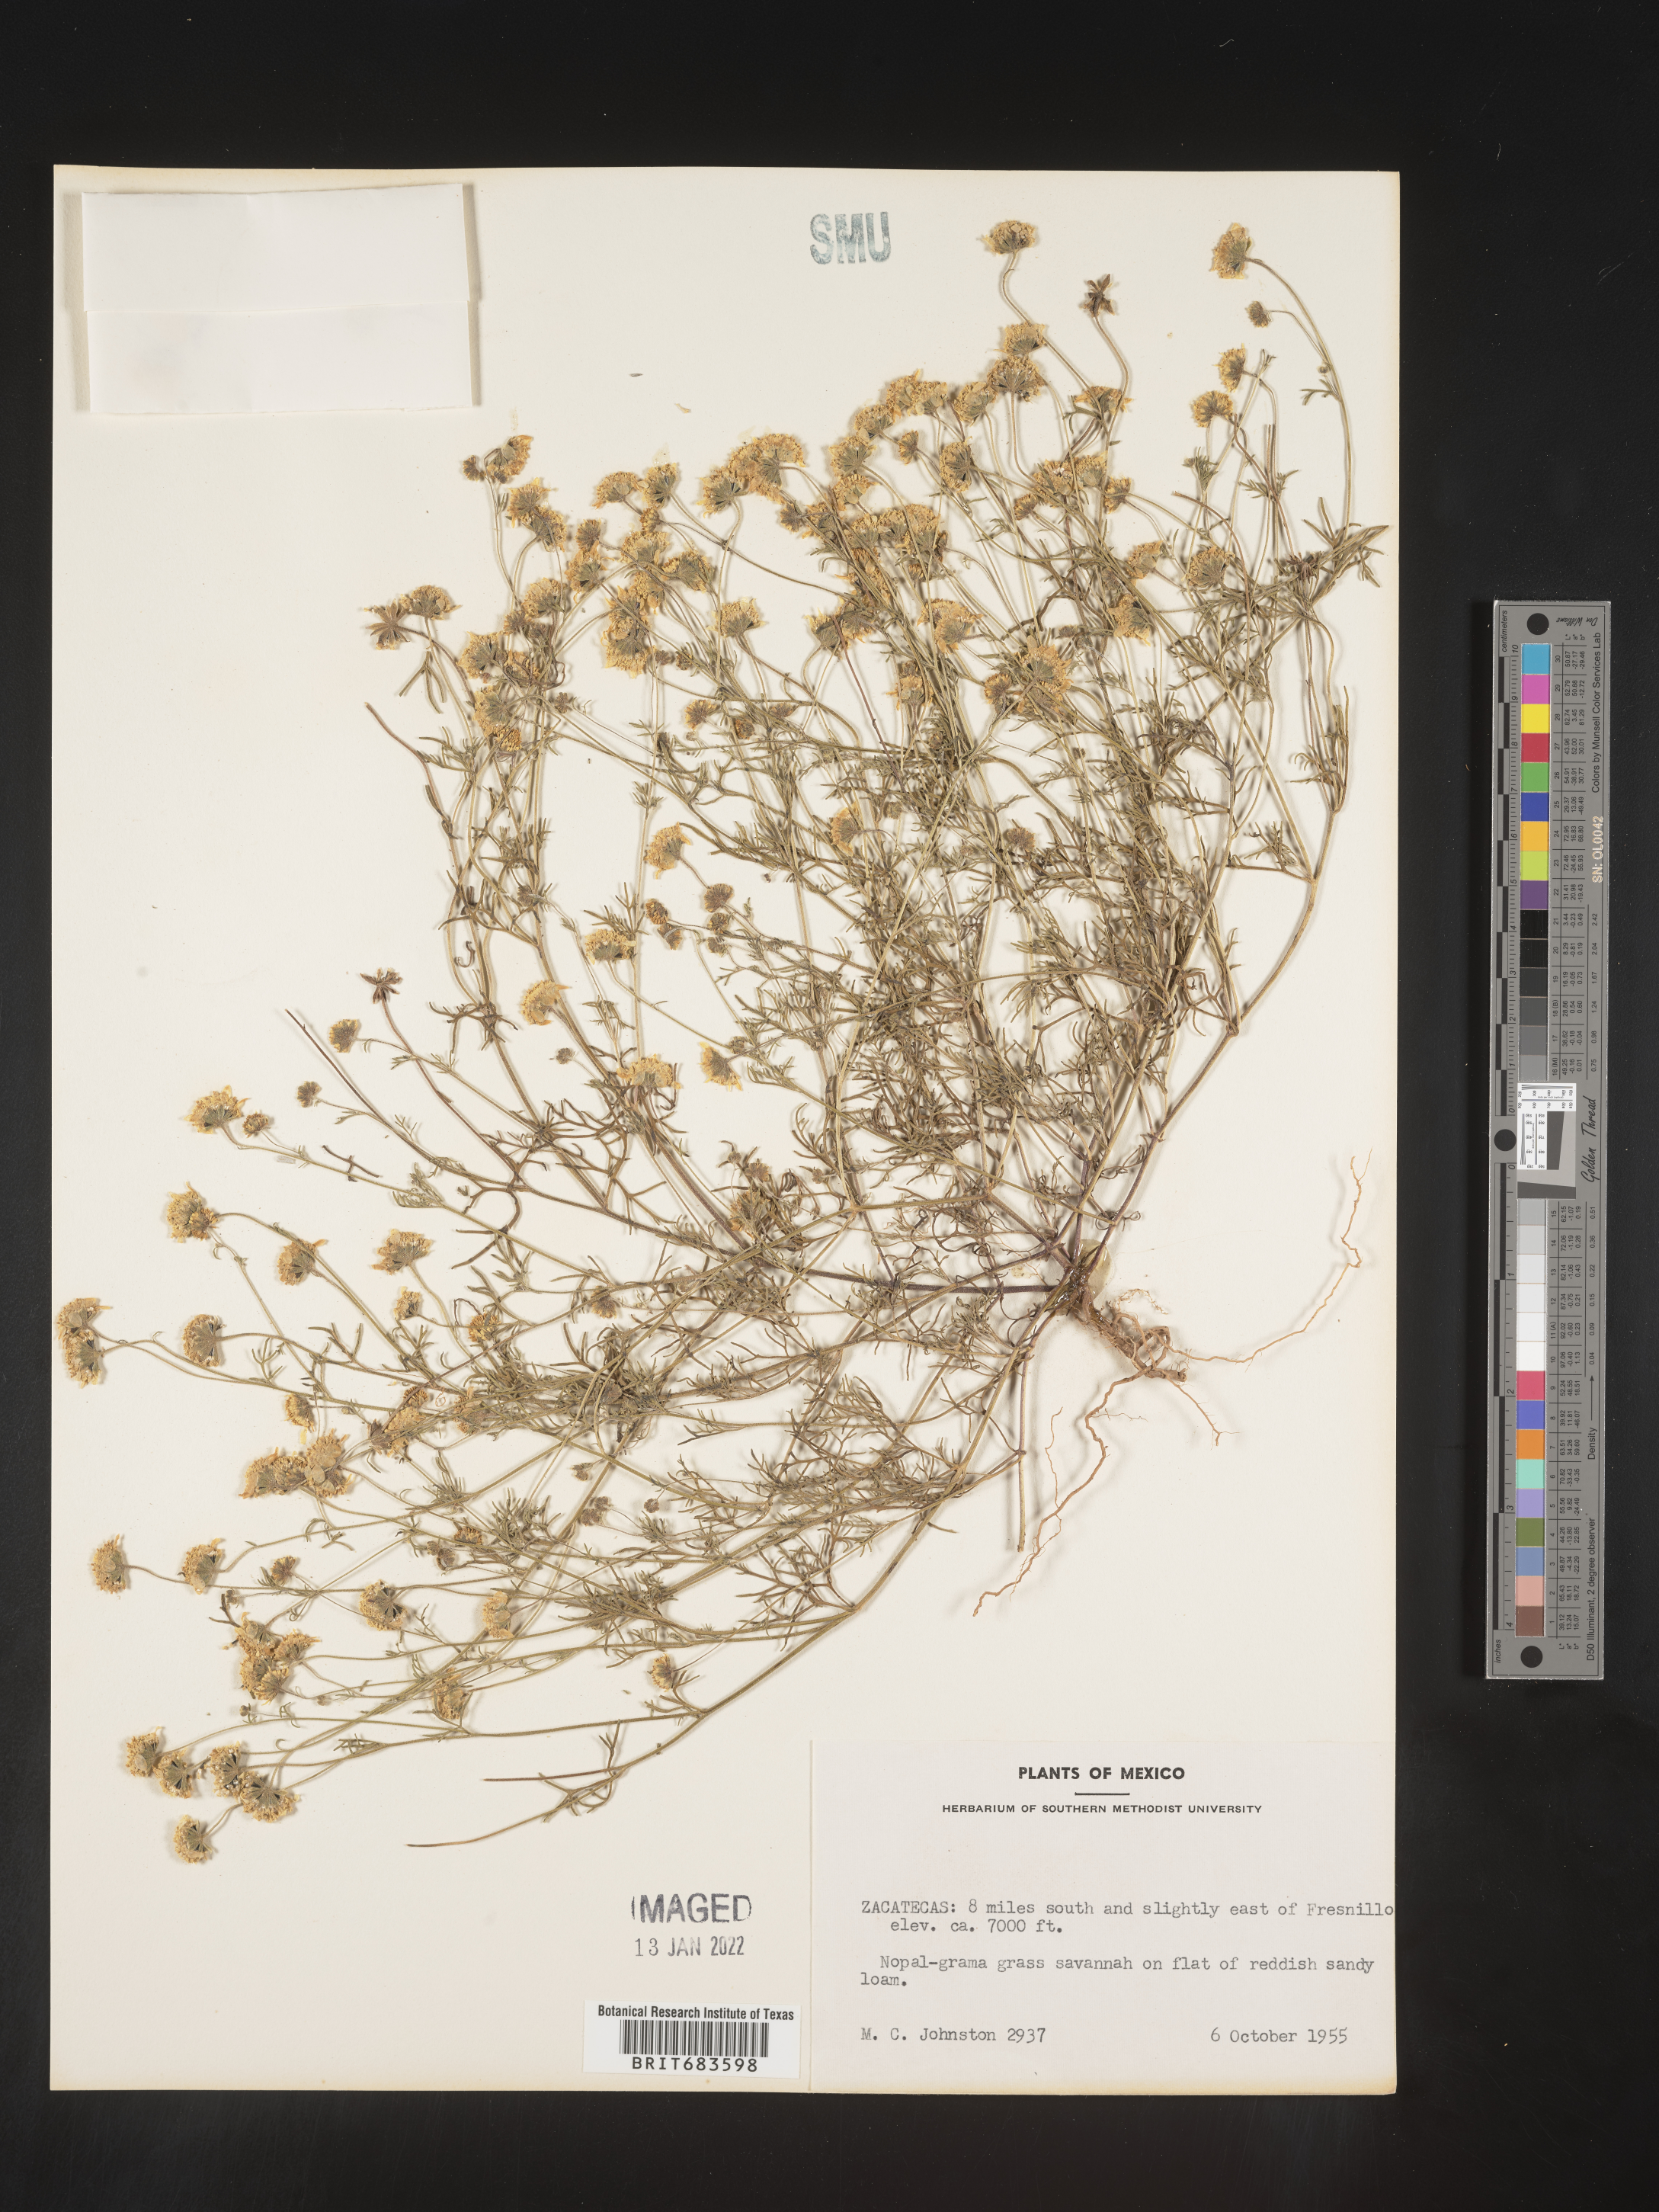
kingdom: Plantae
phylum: Tracheophyta
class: Magnoliopsida
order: Asterales
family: Asteraceae
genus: Bahia
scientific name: Bahia
